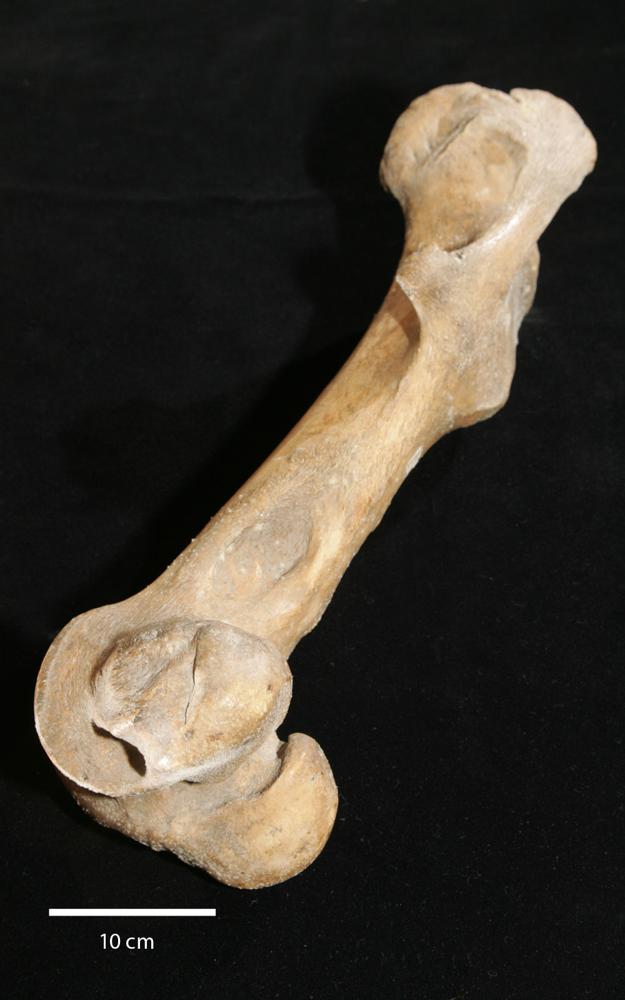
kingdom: Animalia
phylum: Chordata
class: Mammalia
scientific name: Mammalia
